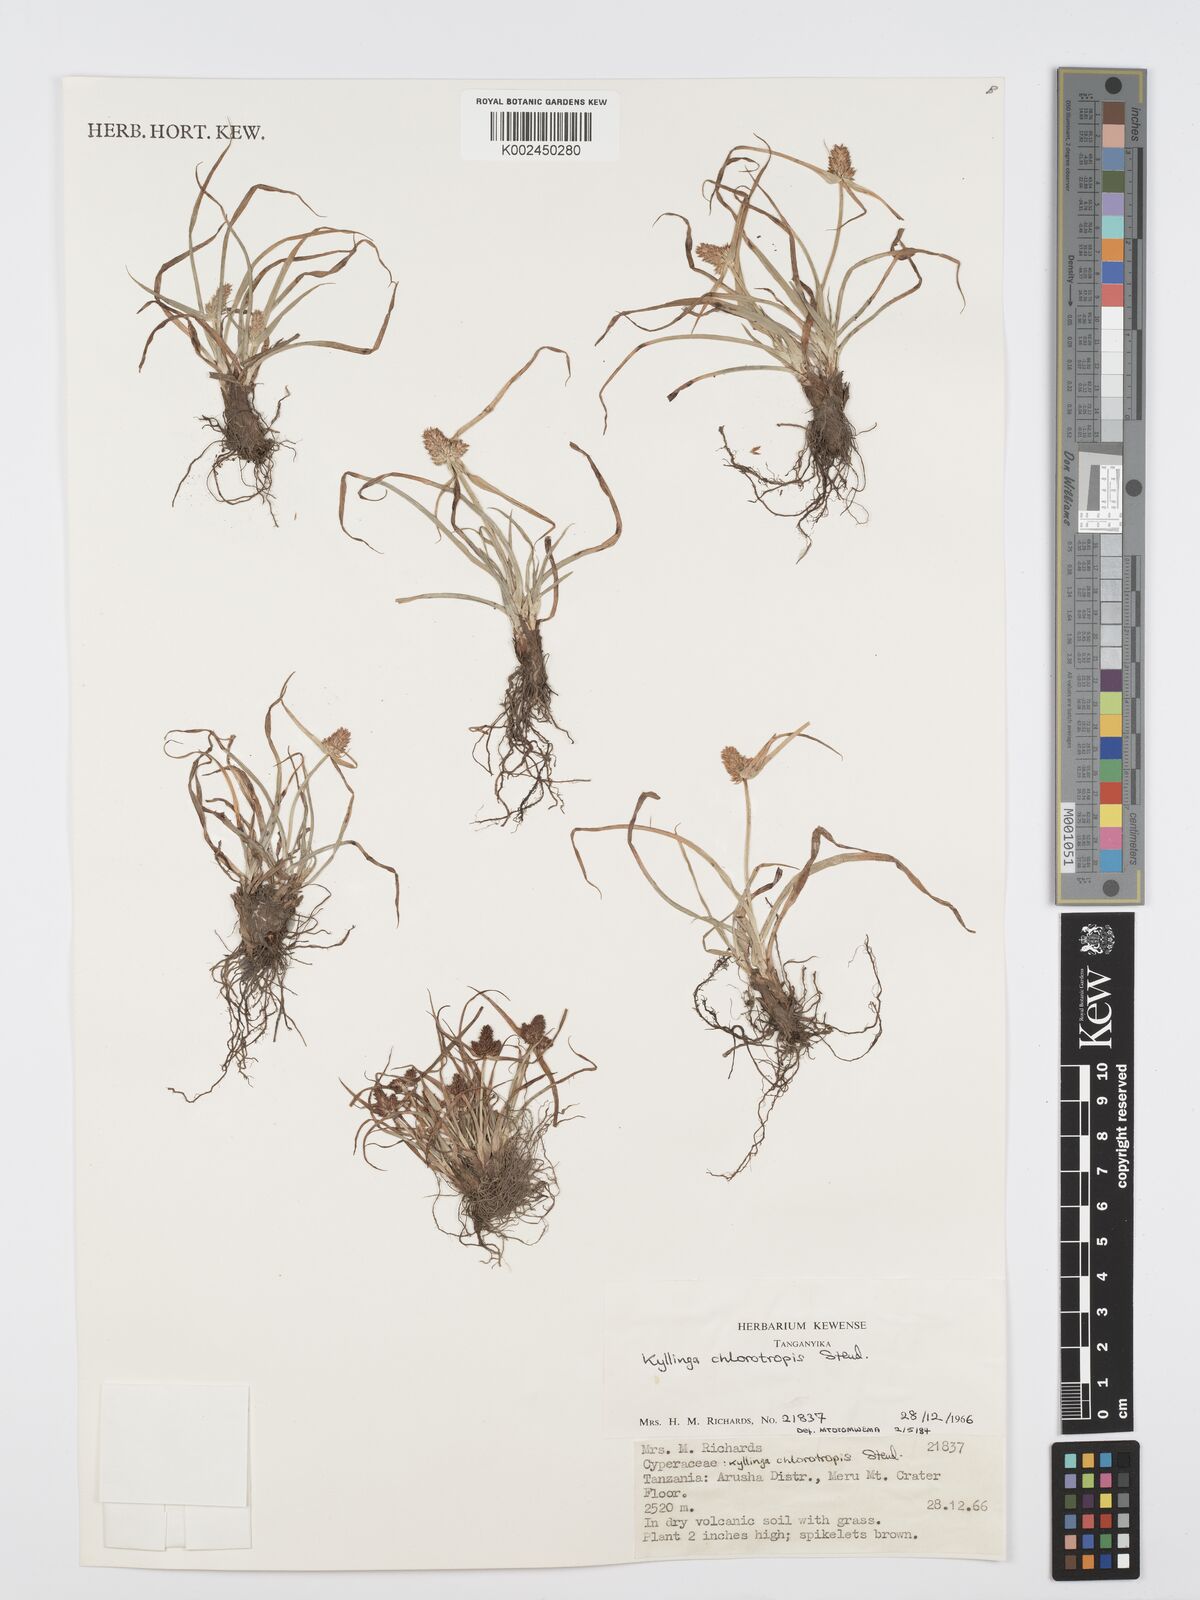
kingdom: Plantae
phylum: Tracheophyta
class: Liliopsida
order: Poales
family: Cyperaceae
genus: Cyperus
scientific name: Cyperus
